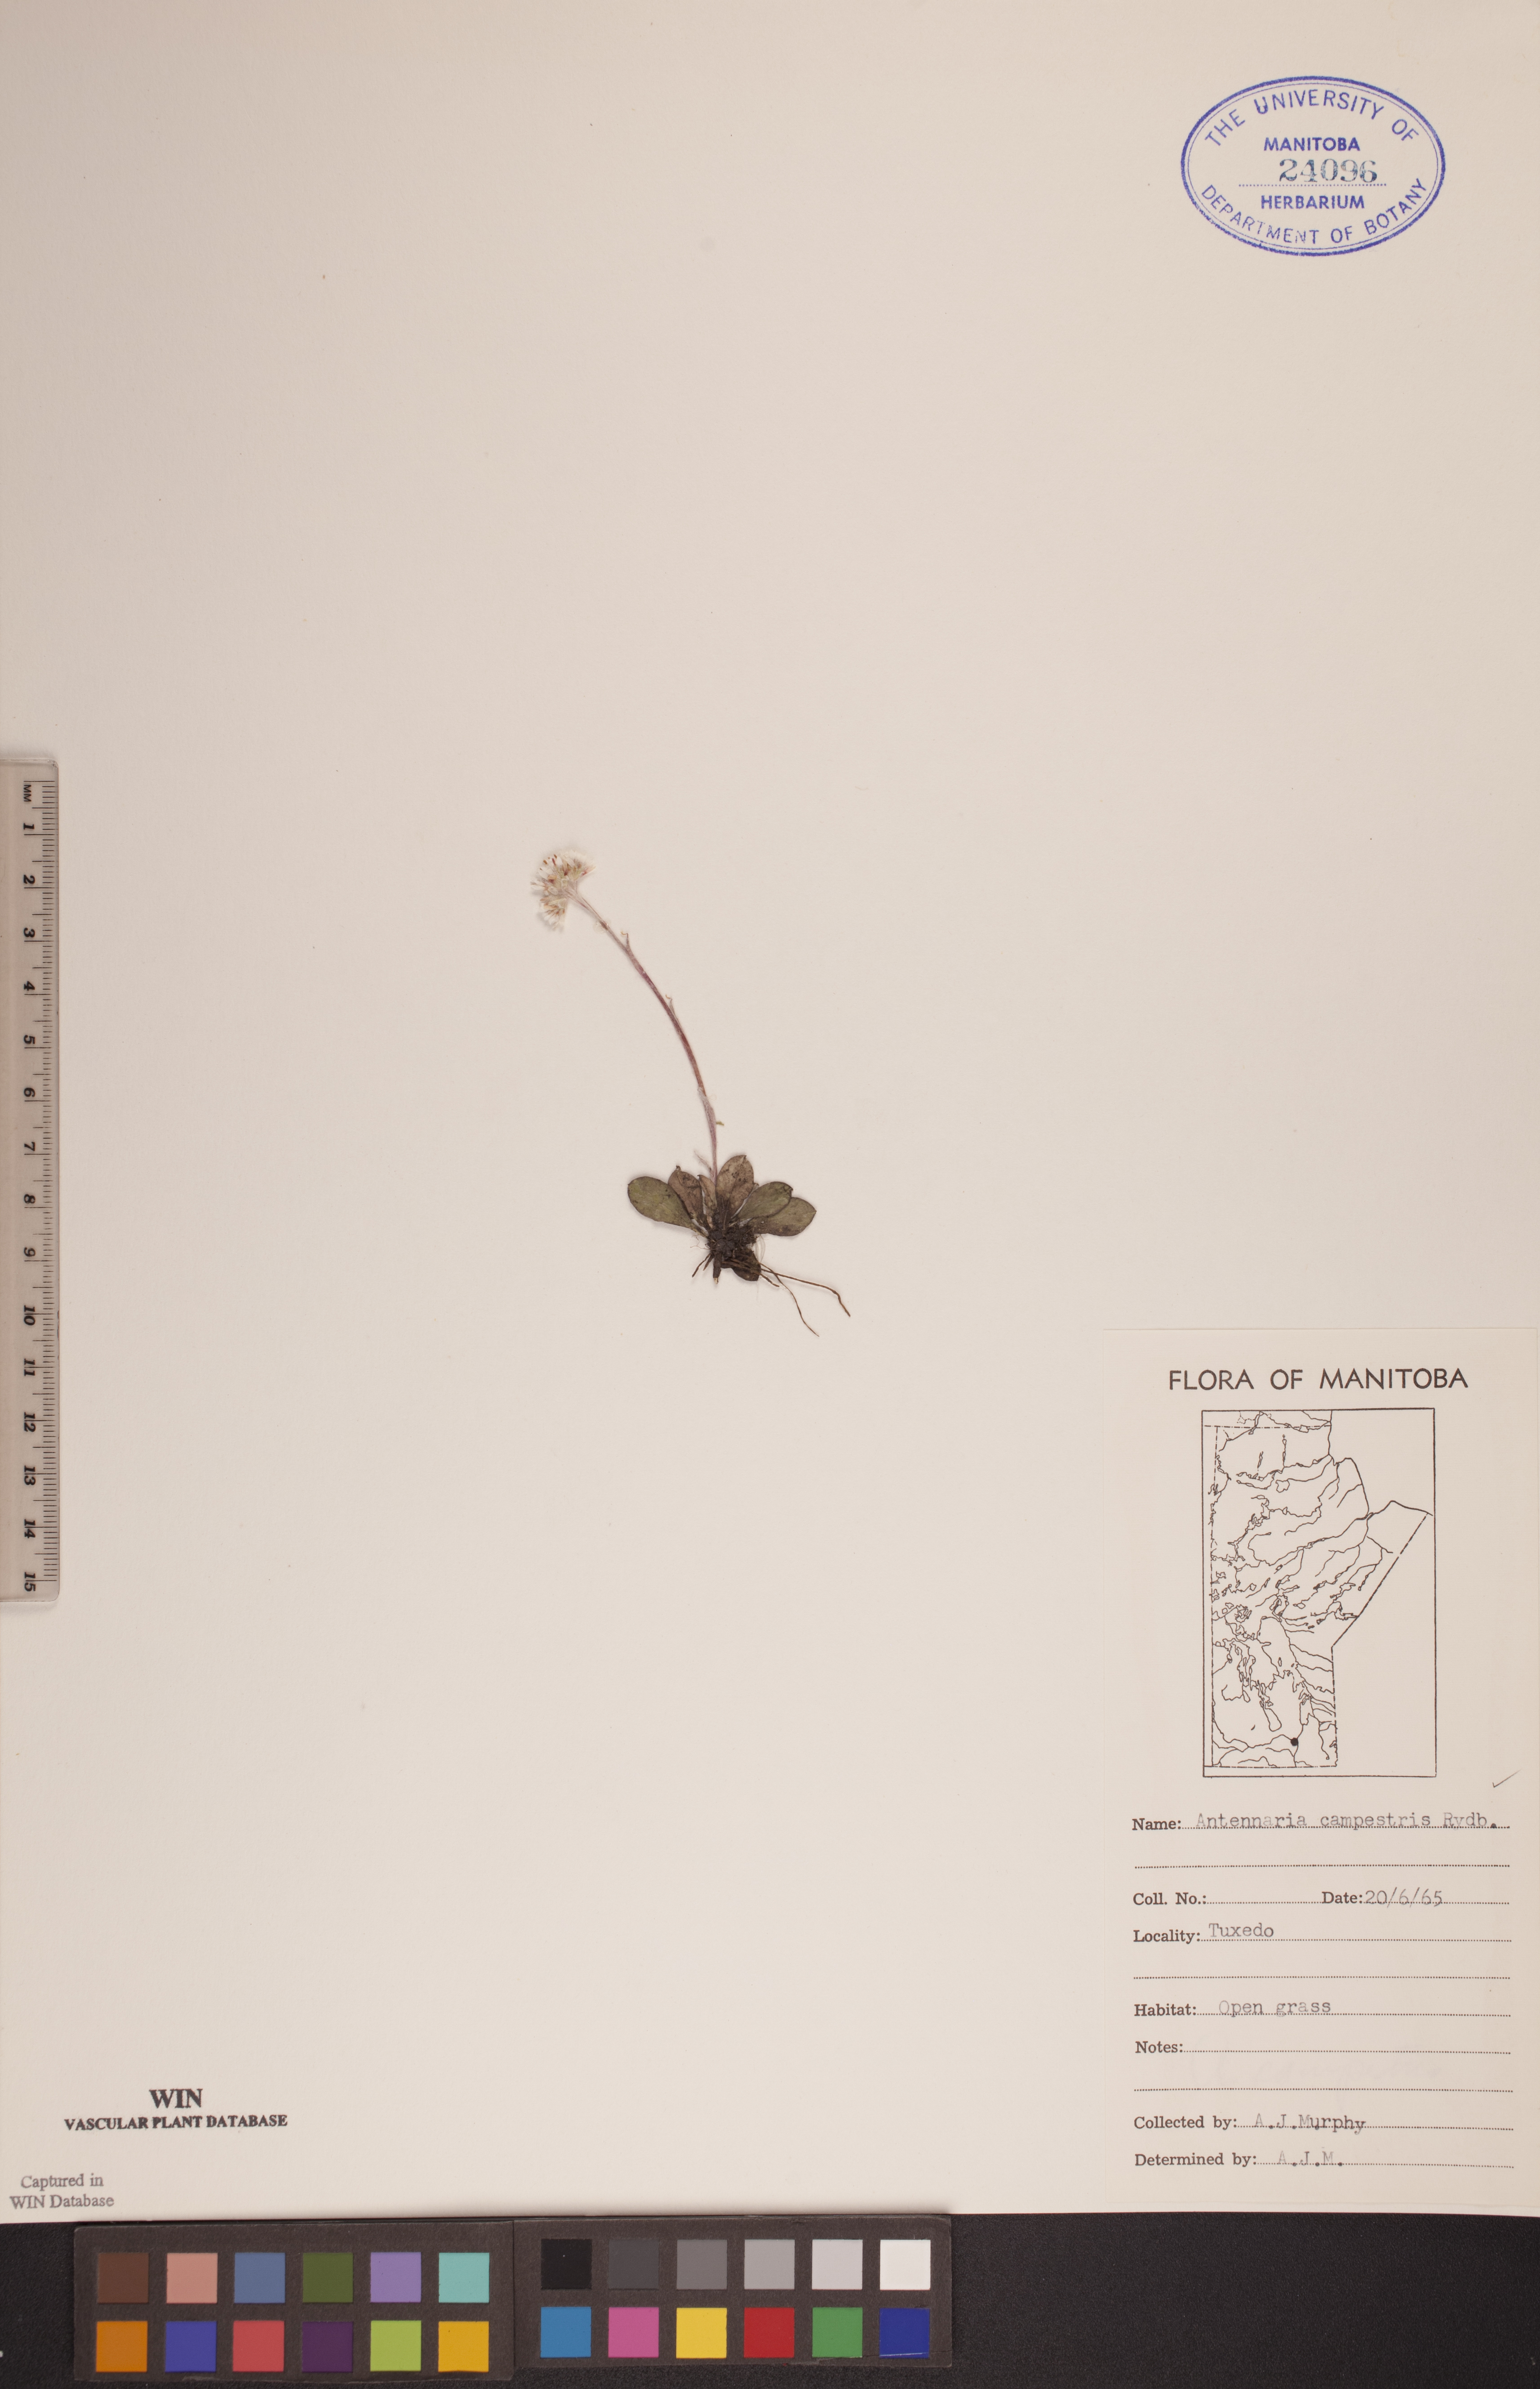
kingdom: Plantae
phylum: Tracheophyta
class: Magnoliopsida
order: Asterales
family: Asteraceae
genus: Antennaria
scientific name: Antennaria neglecta
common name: Field pussytoes
